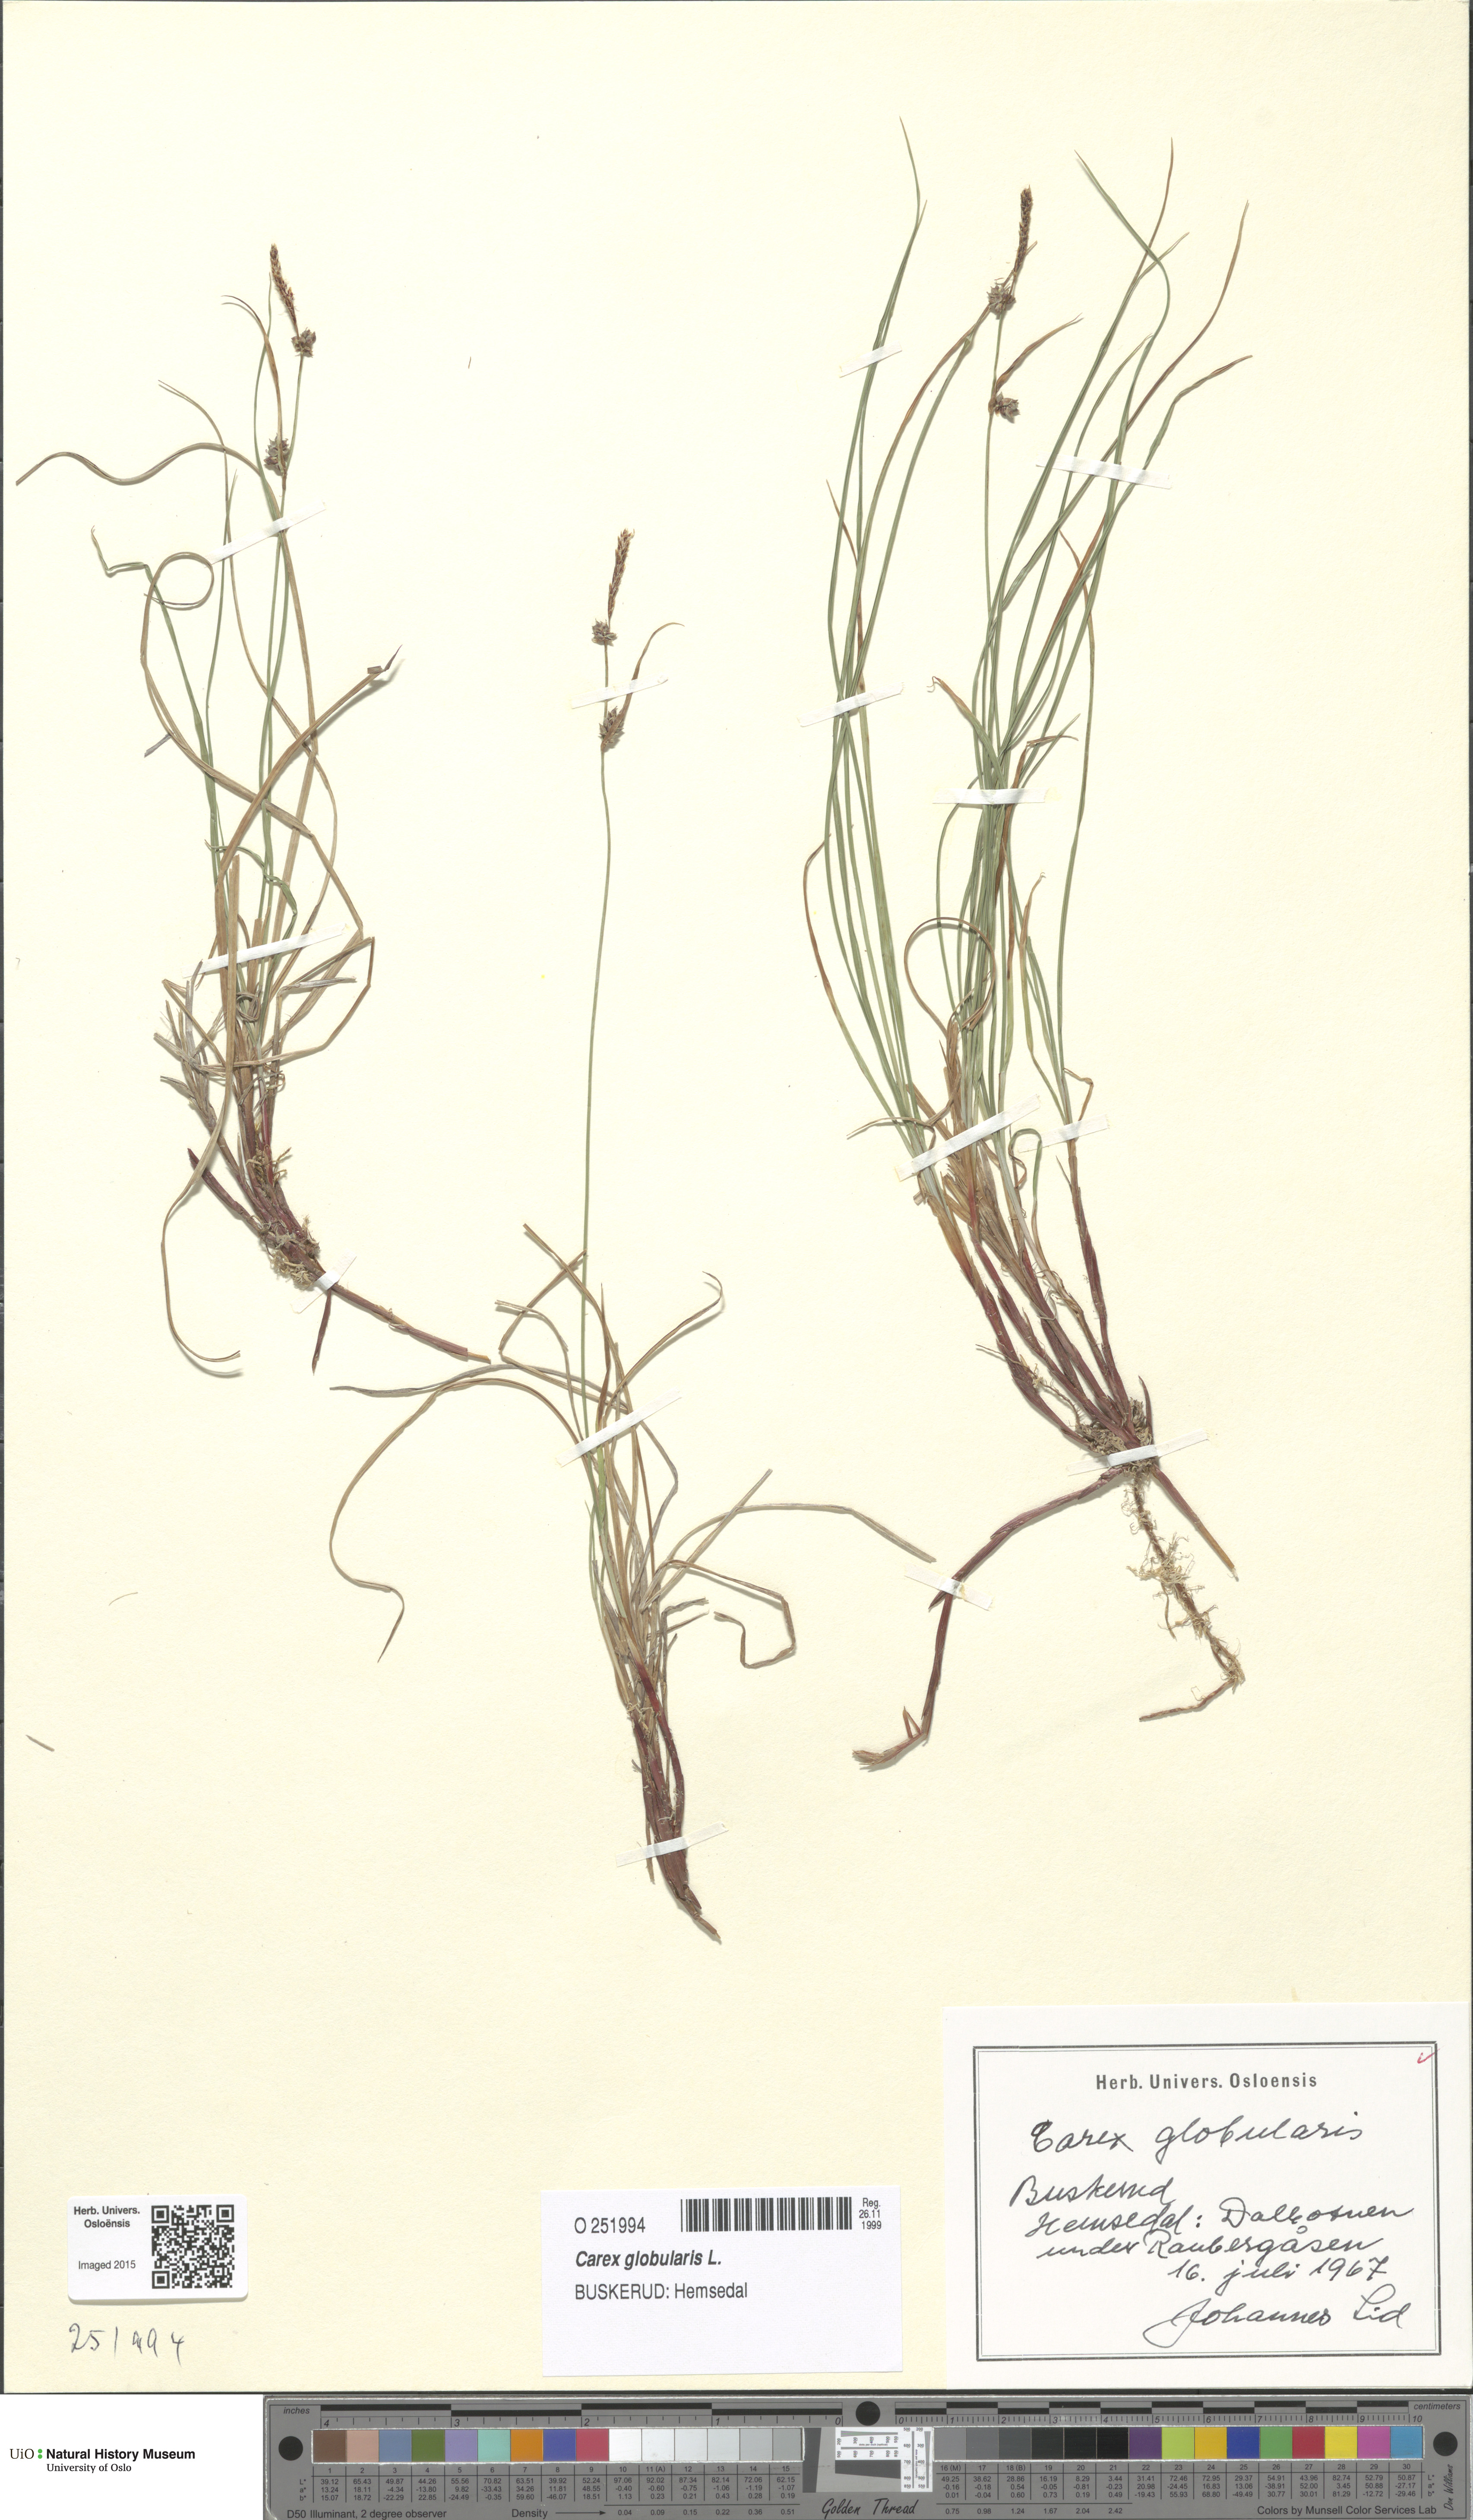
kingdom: Plantae
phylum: Tracheophyta
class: Liliopsida
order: Poales
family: Cyperaceae
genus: Carex
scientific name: Carex globularis
